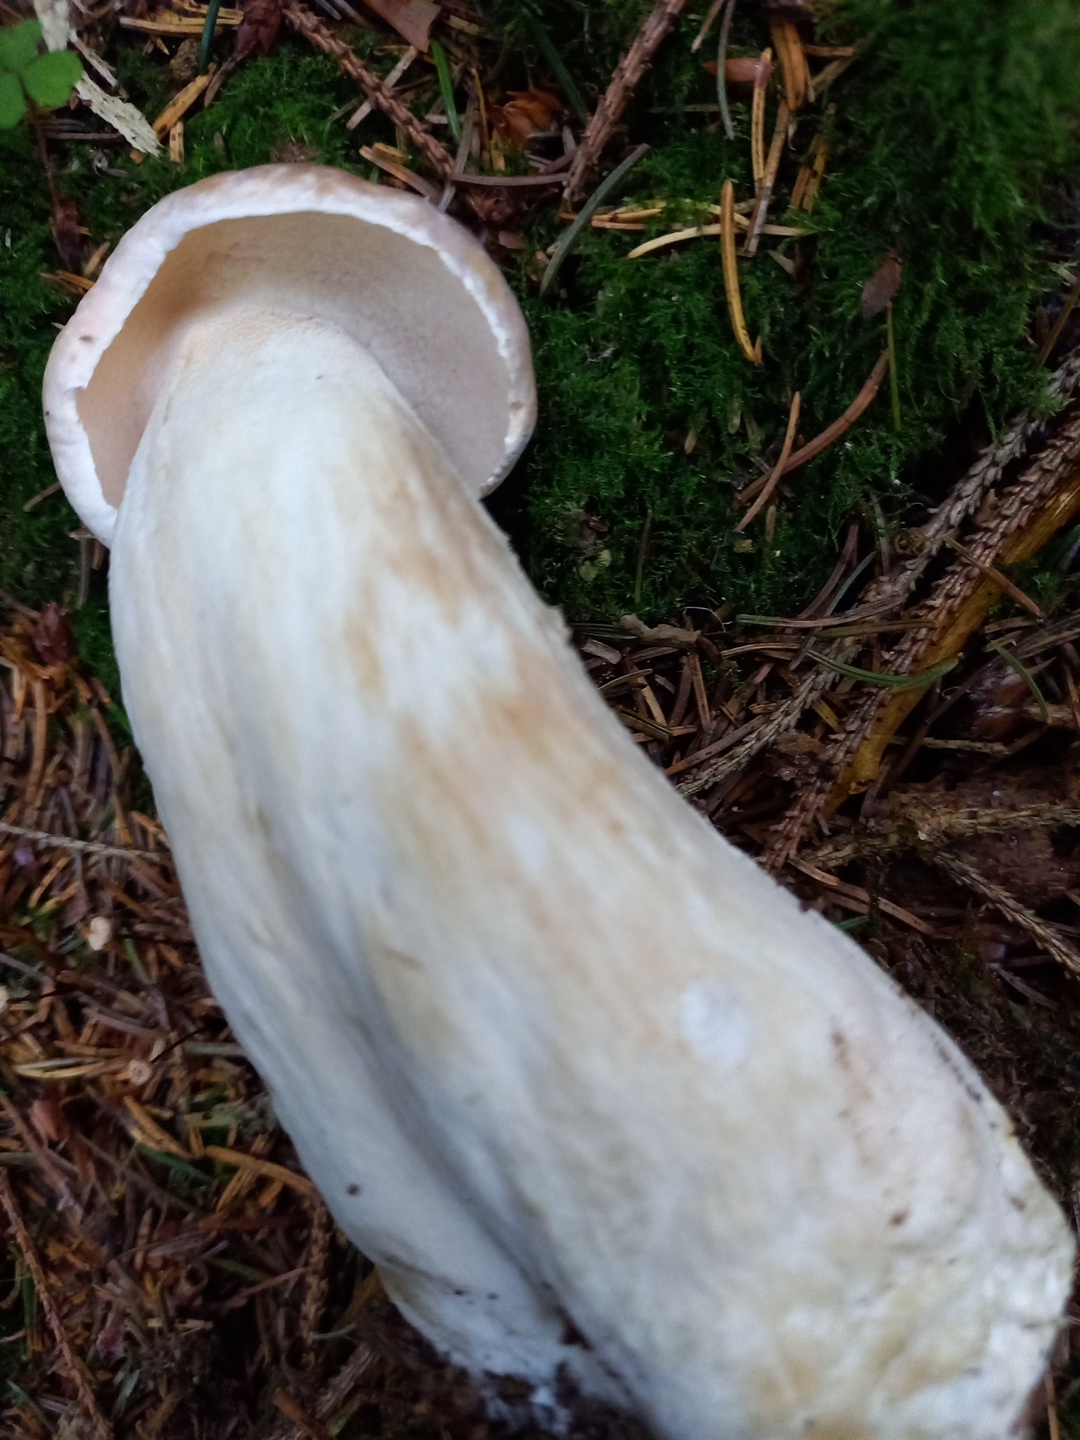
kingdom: Fungi
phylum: Basidiomycota
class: Agaricomycetes
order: Boletales
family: Boletaceae
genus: Boletus
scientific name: Boletus edulis
